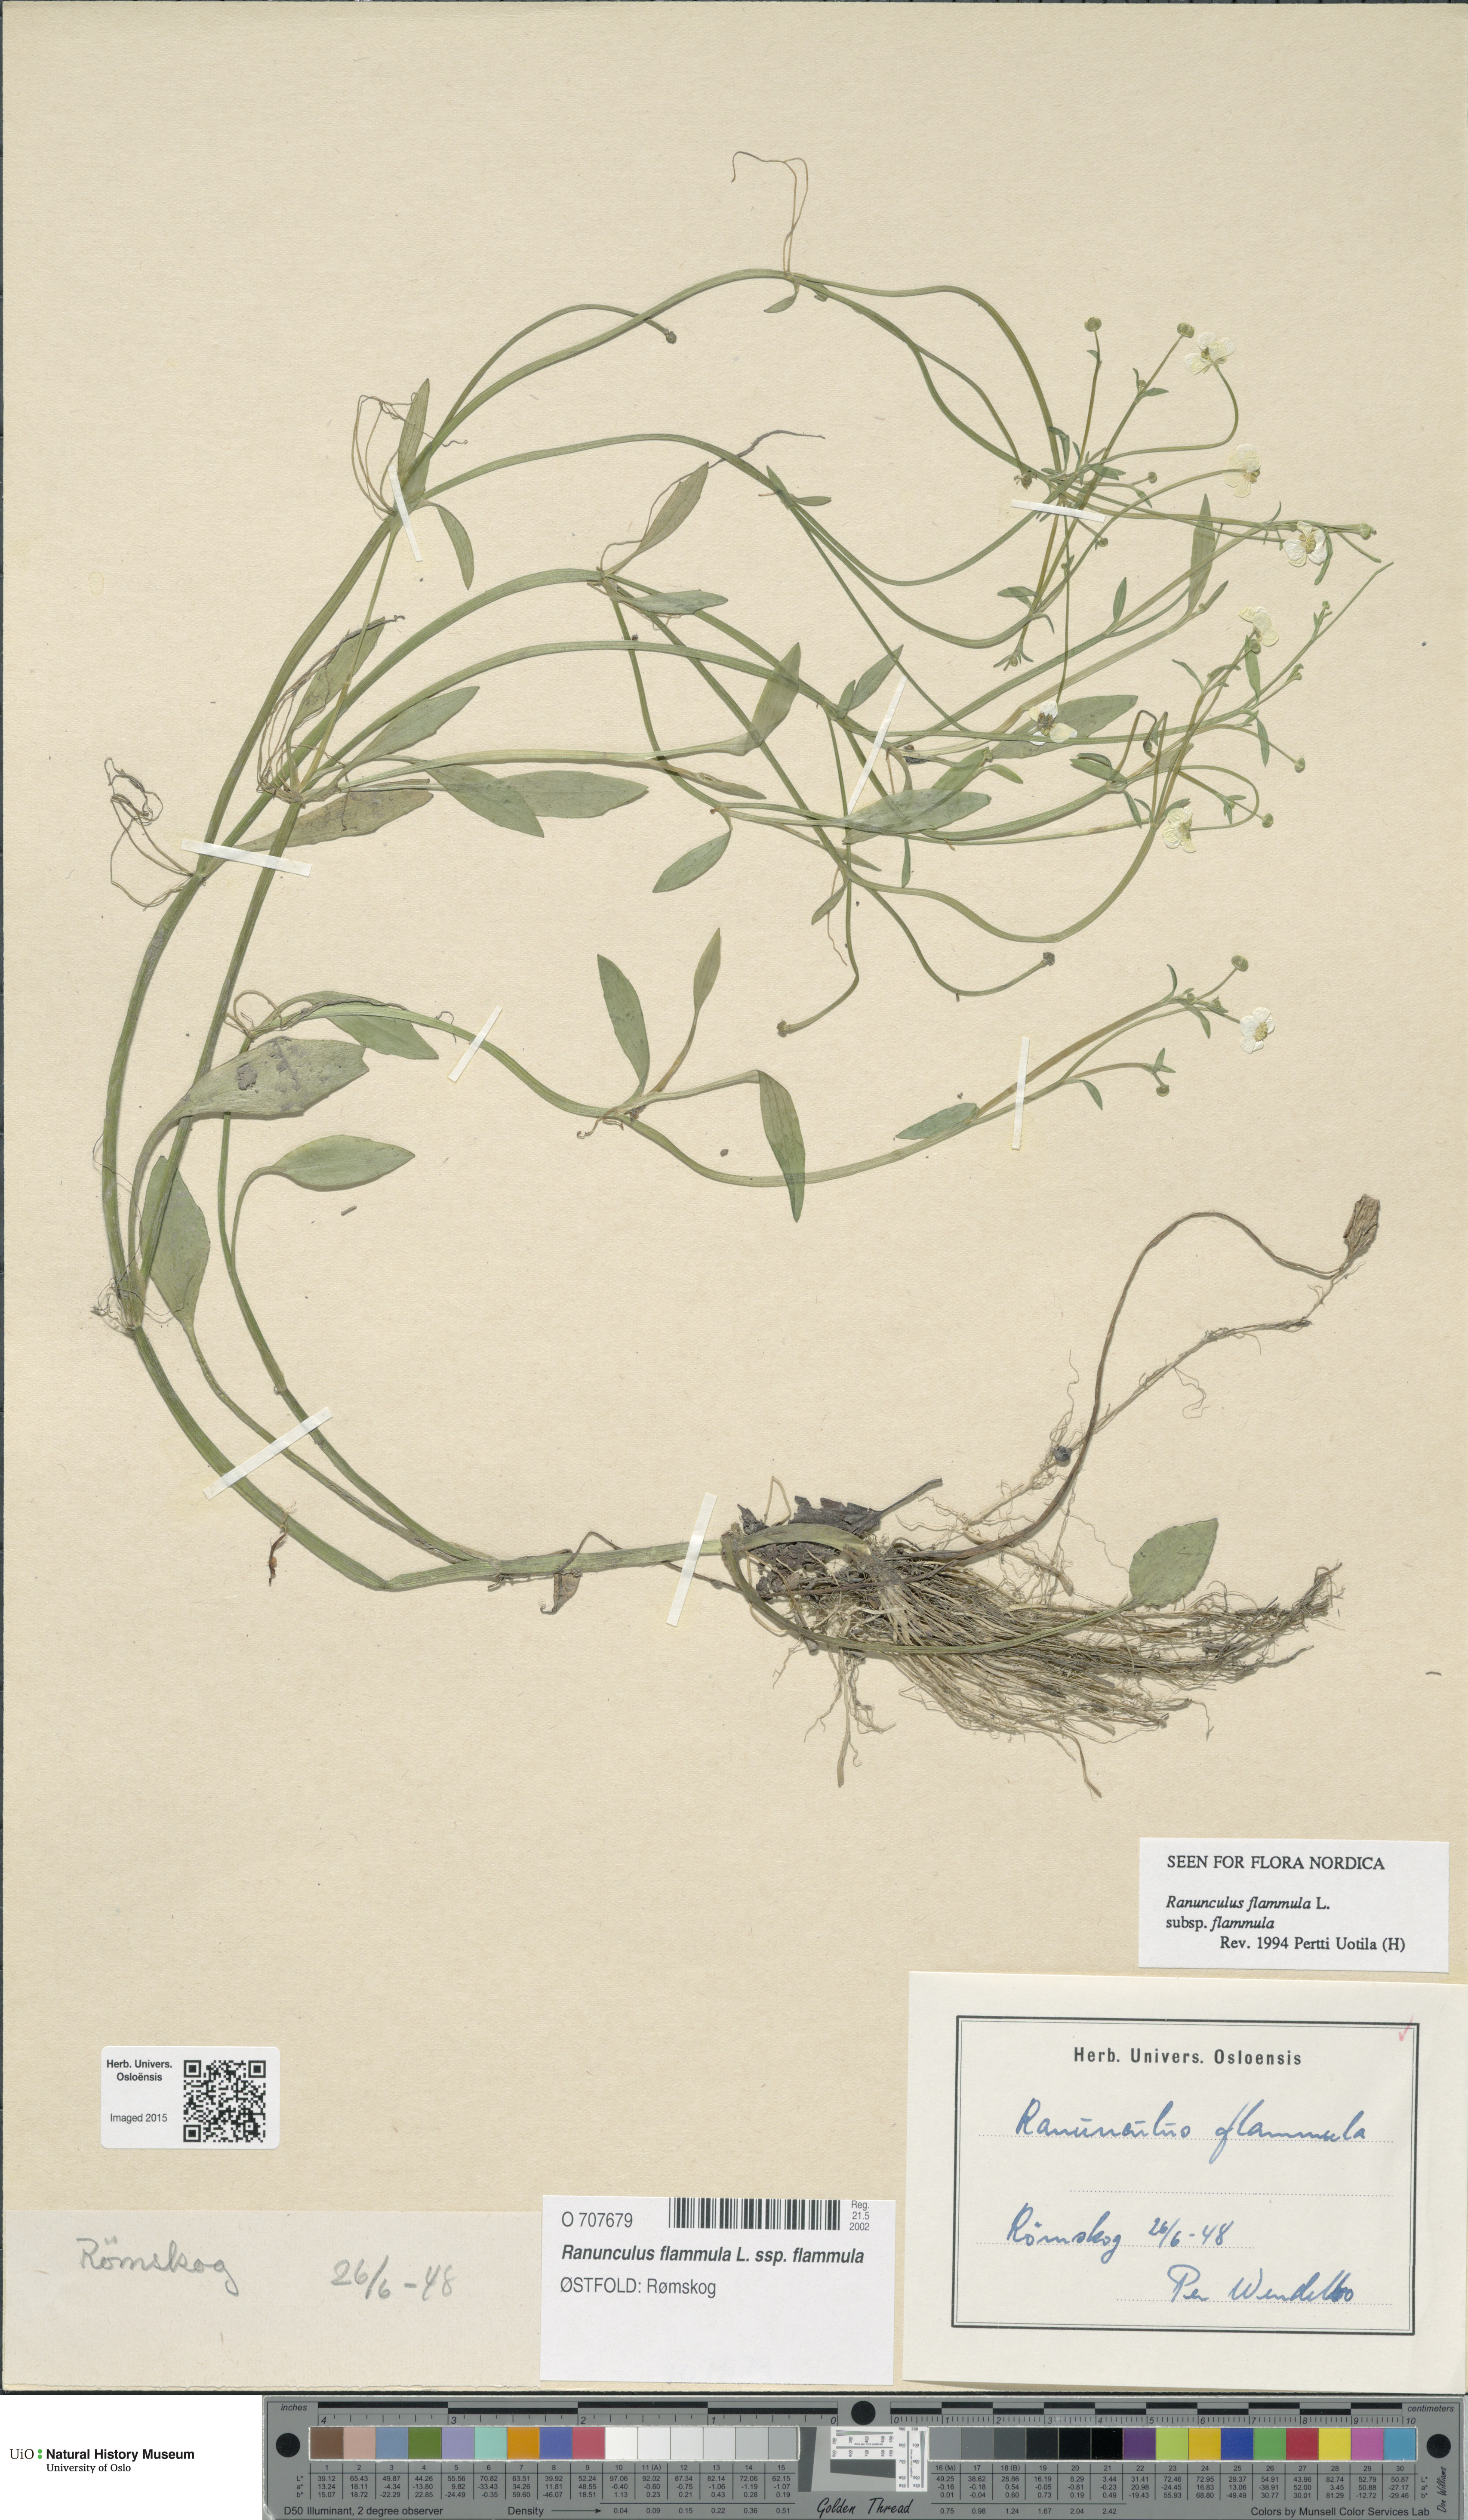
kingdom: Plantae
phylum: Tracheophyta
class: Magnoliopsida
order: Ranunculales
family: Ranunculaceae
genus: Ranunculus
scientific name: Ranunculus flammula
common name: Lesser spearwort
